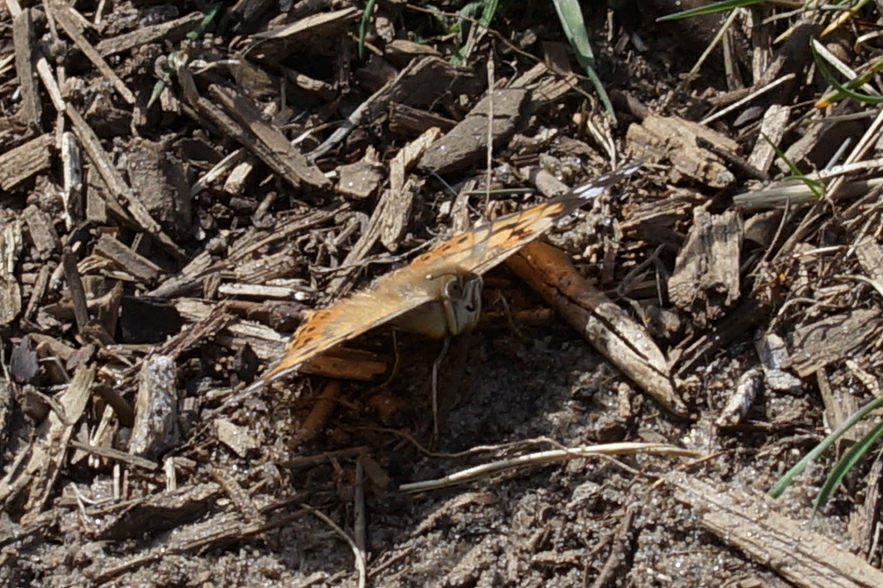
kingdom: Animalia
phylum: Arthropoda
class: Insecta
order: Lepidoptera
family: Nymphalidae
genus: Vanessa
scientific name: Vanessa cardui
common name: Tidselsommerfugl
